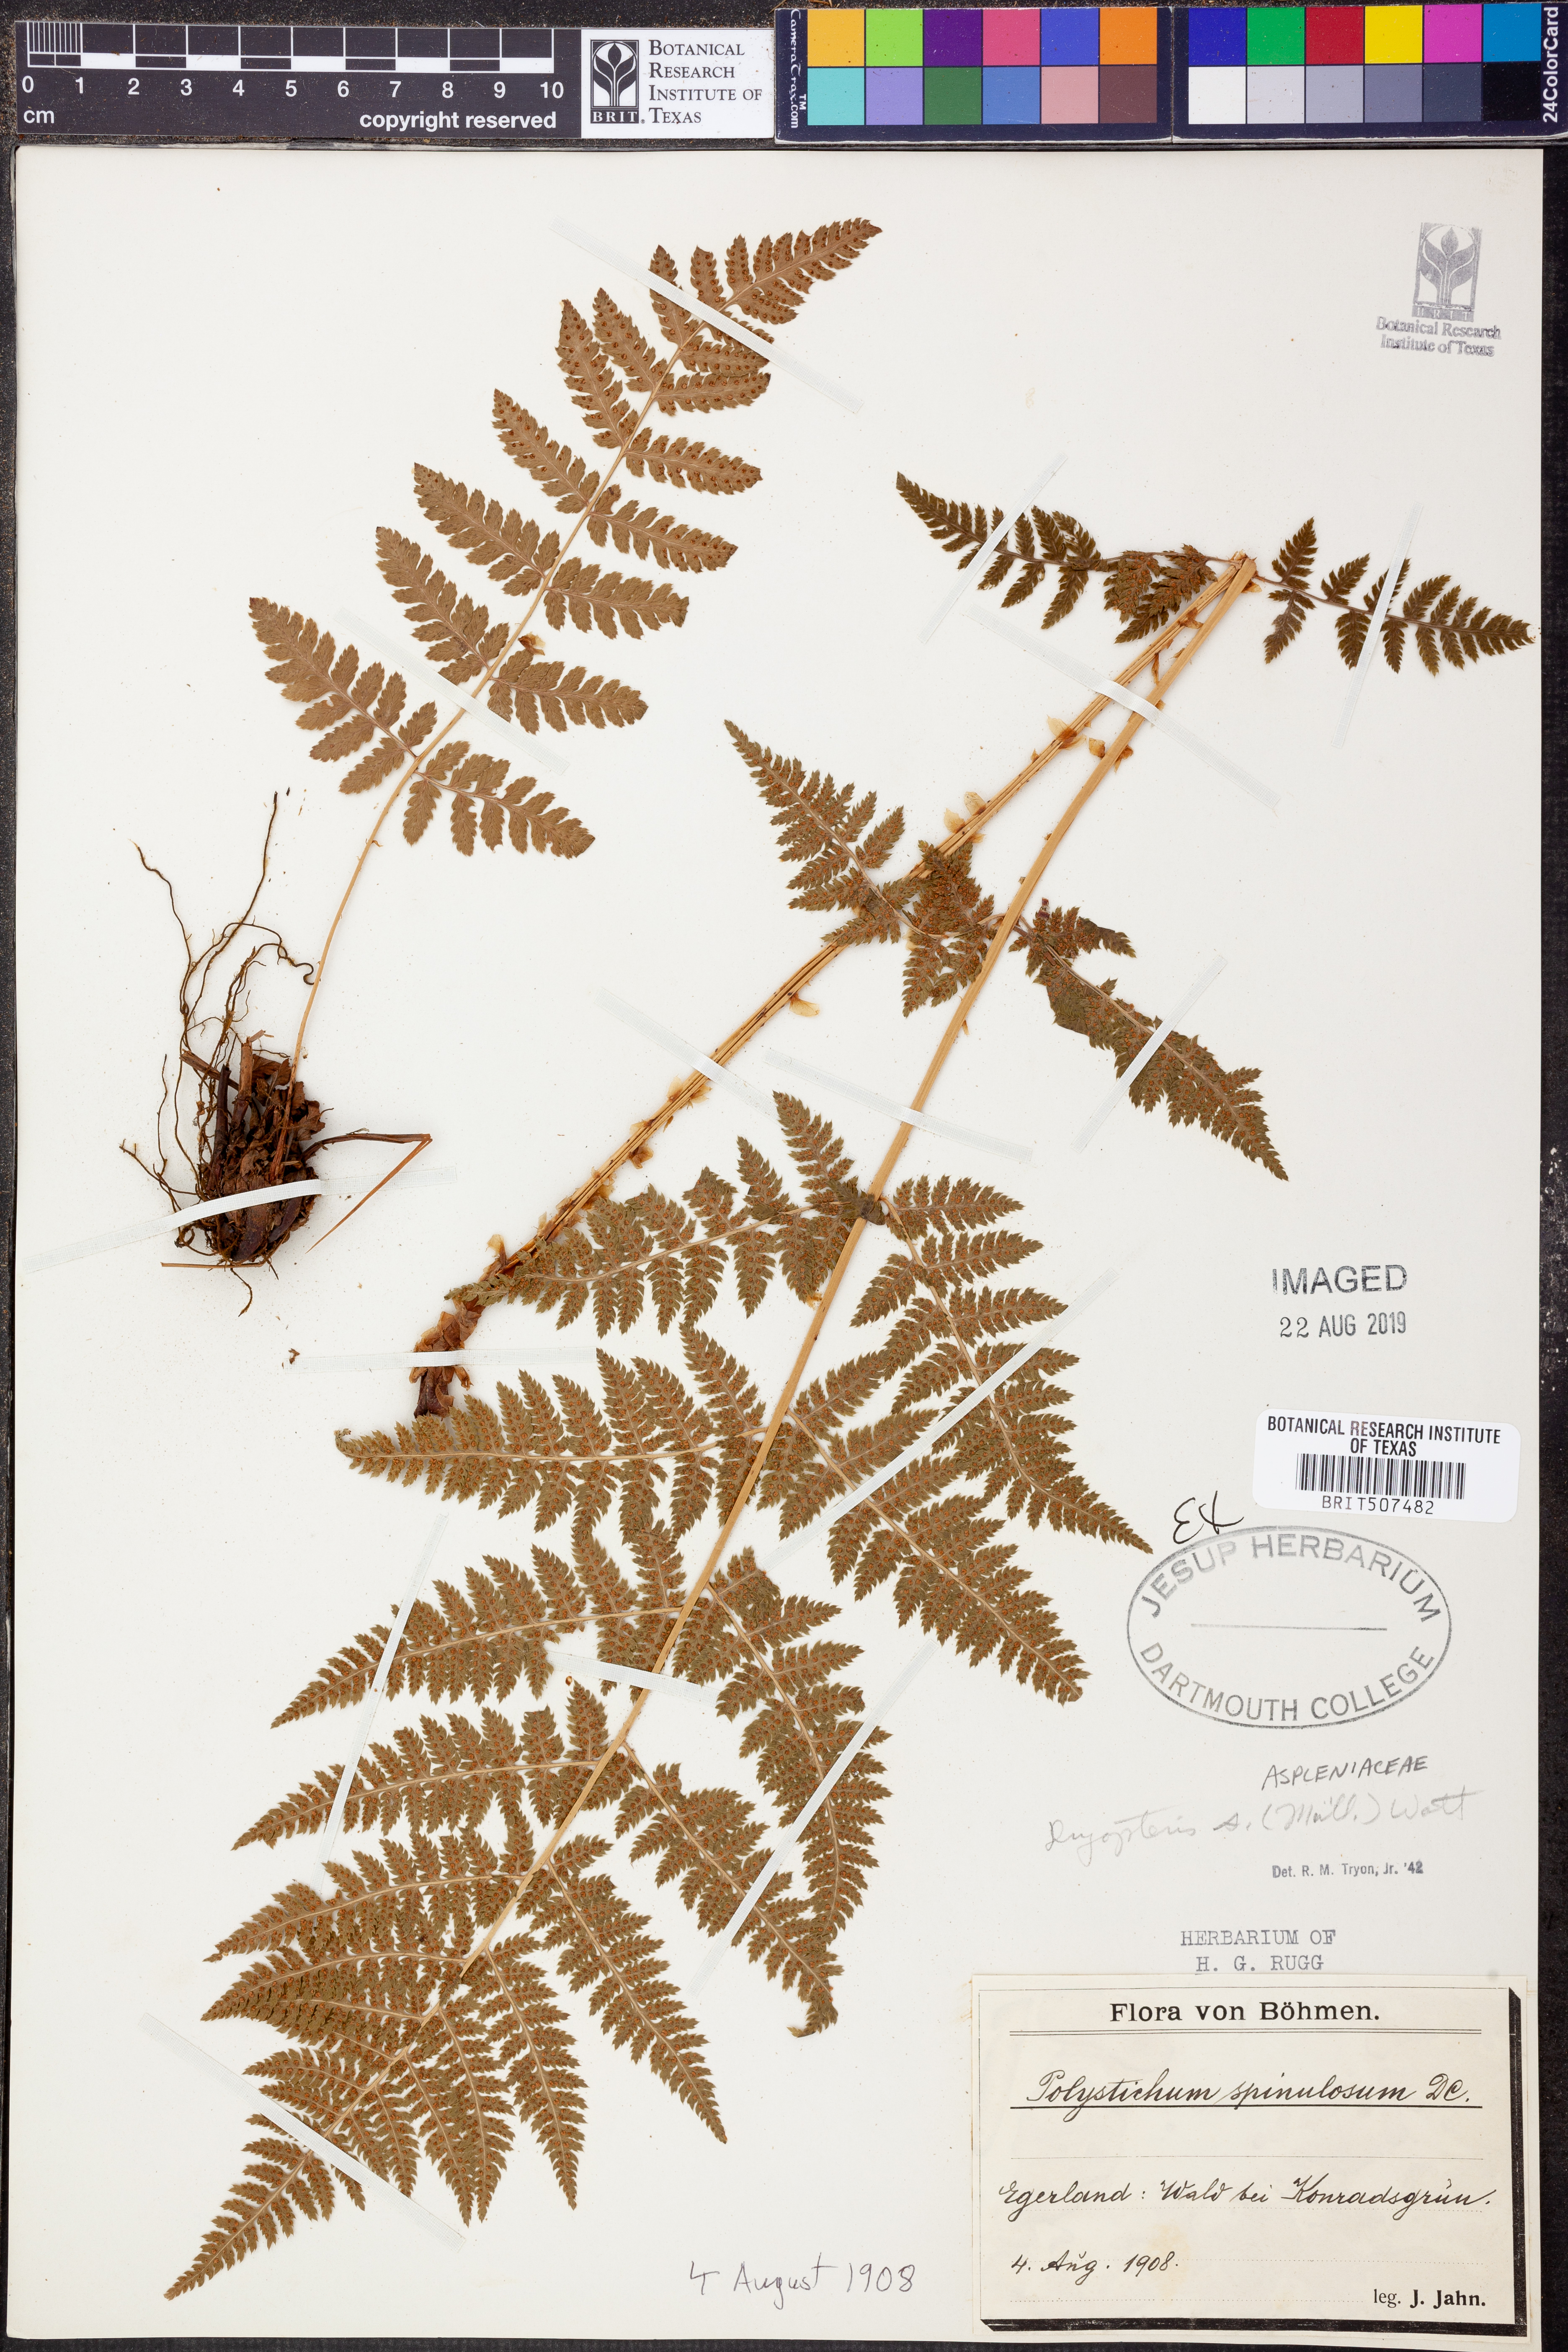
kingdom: Plantae
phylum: Tracheophyta
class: Polypodiopsida
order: Polypodiales
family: Dryopteridaceae
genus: Dryopteris
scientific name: Dryopteris carthusiana
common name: Narrow buckler-fern
